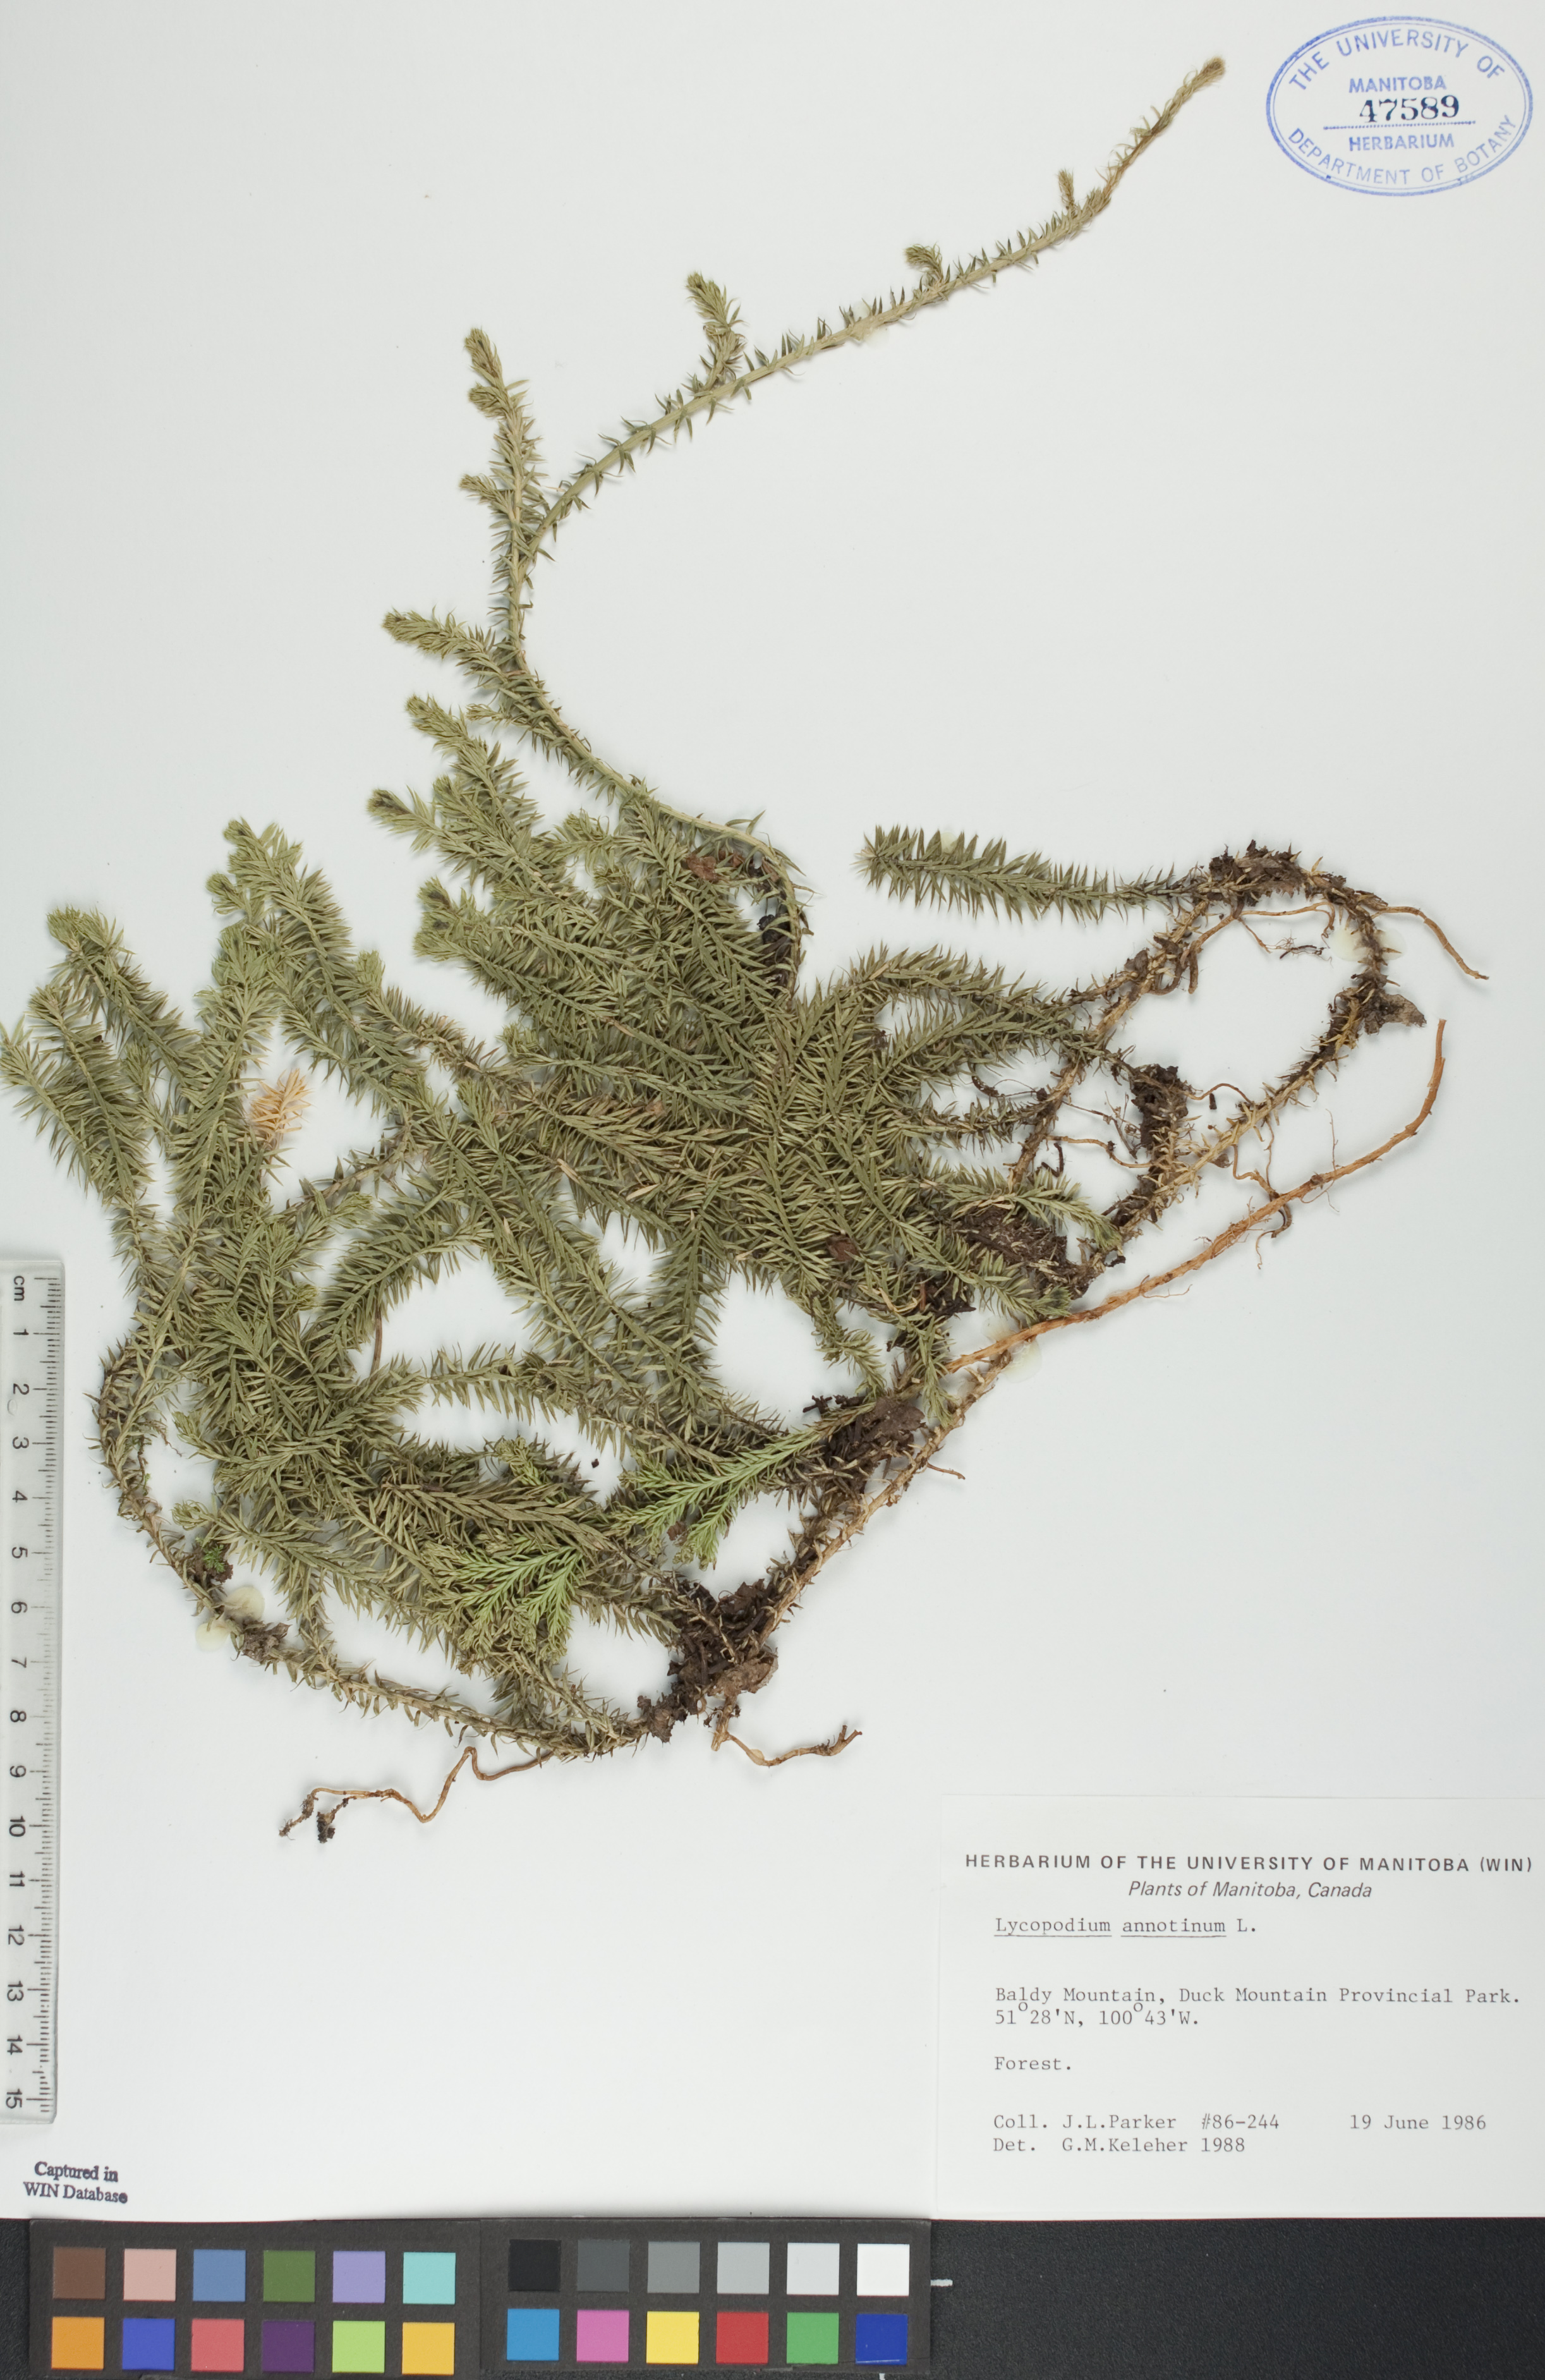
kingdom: Plantae
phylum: Tracheophyta
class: Lycopodiopsida
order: Lycopodiales
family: Lycopodiaceae
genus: Spinulum
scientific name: Spinulum annotinum
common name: Interrupted club-moss
